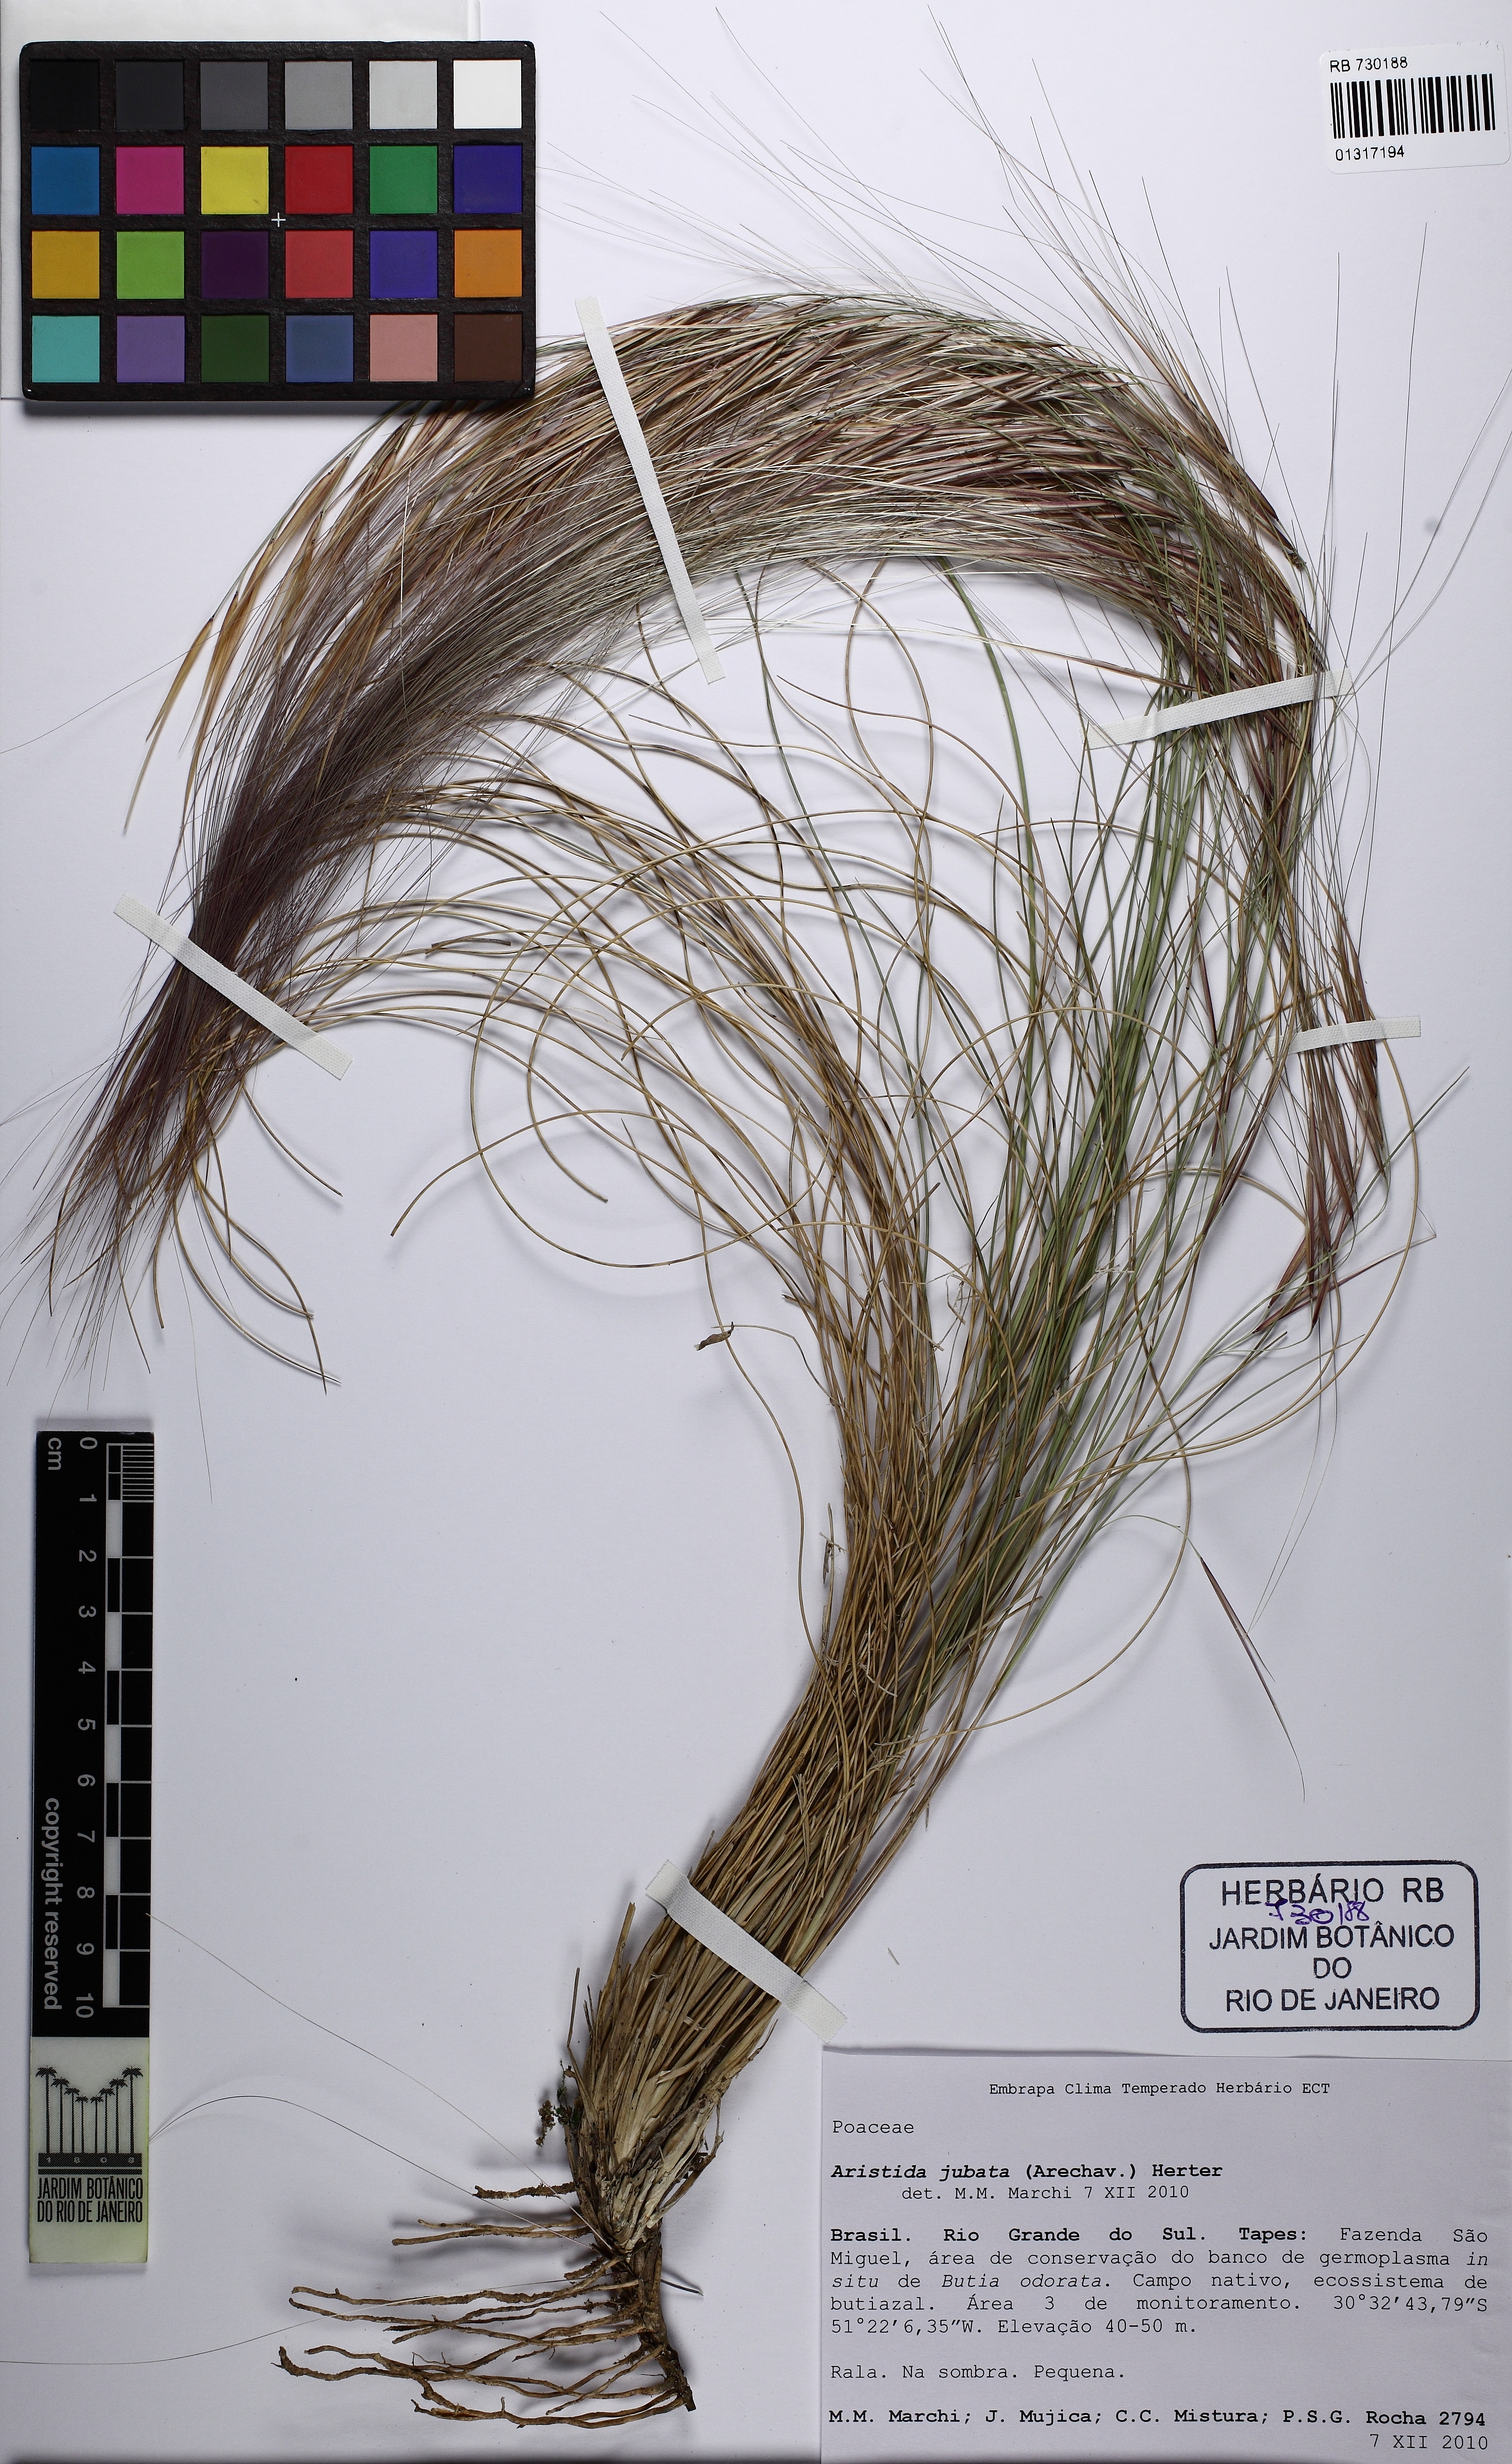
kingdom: Plantae
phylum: Tracheophyta
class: Liliopsida
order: Poales
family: Poaceae
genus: Aristida
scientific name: Aristida jubata
